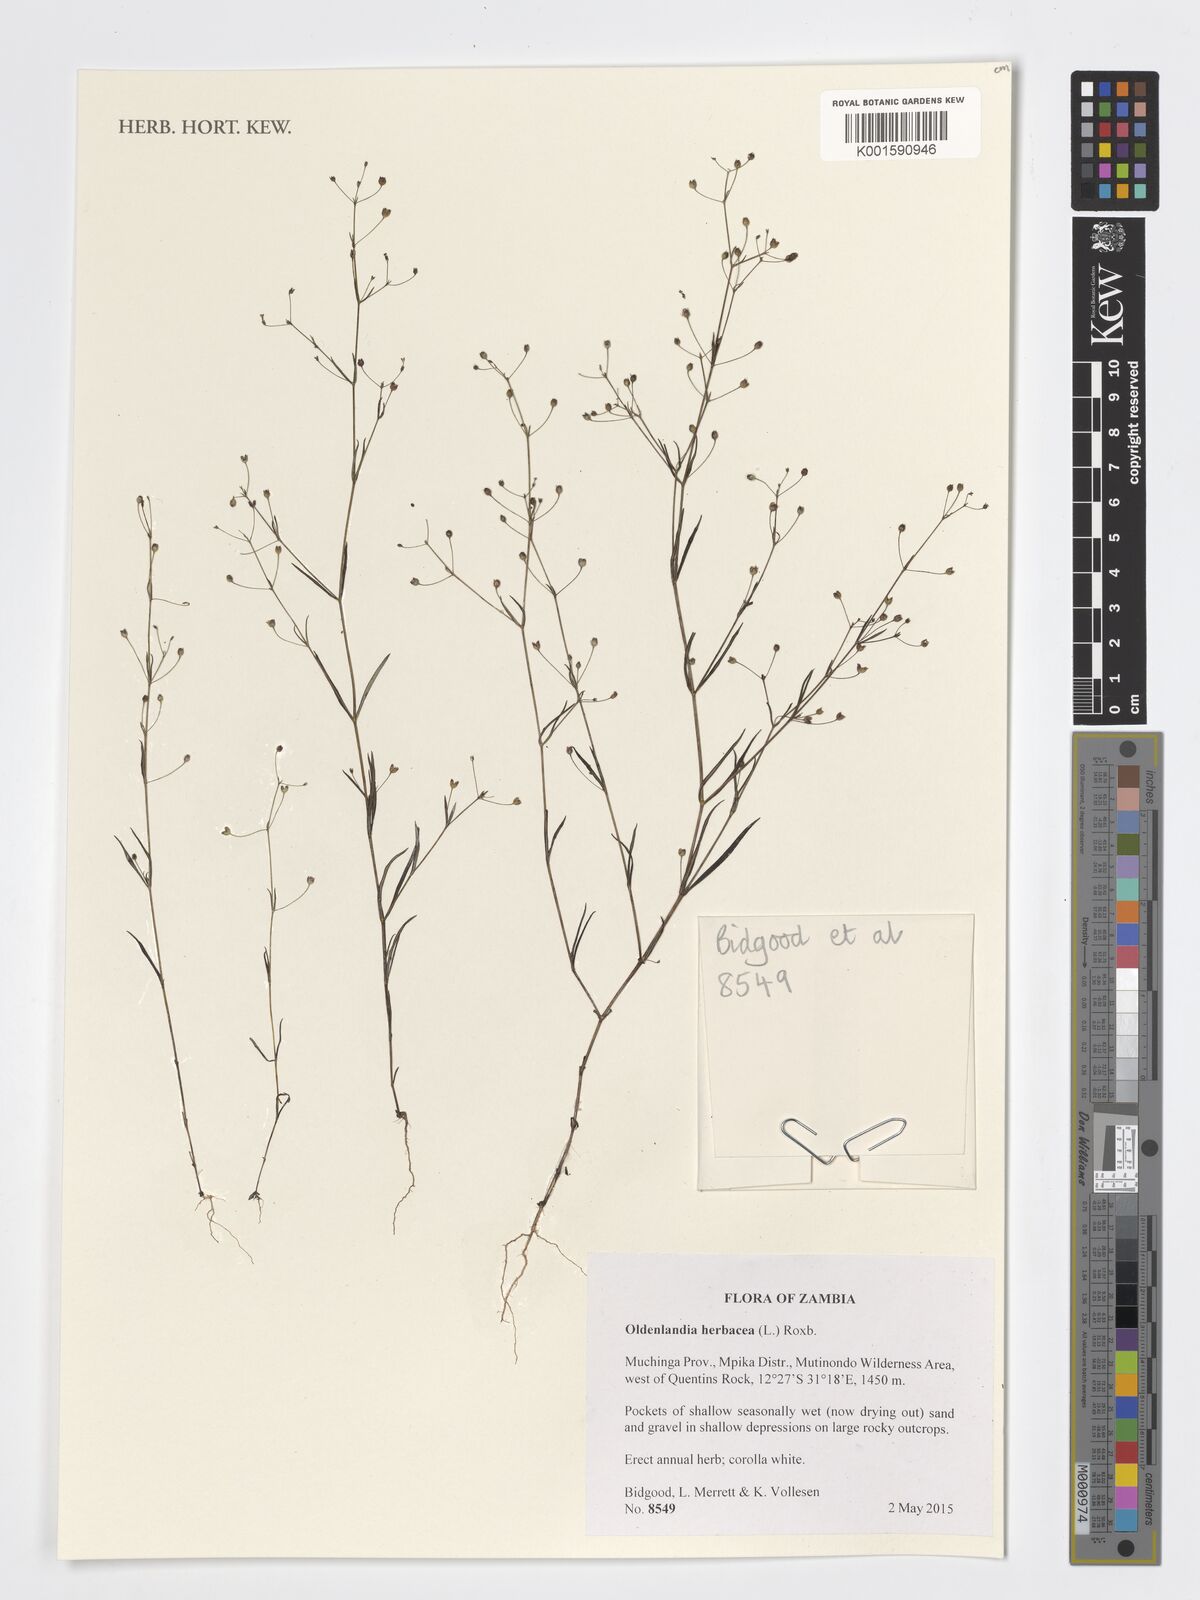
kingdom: Plantae
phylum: Tracheophyta
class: Magnoliopsida
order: Gentianales
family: Rubiaceae
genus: Oldenlandia
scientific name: Oldenlandia herbacea
